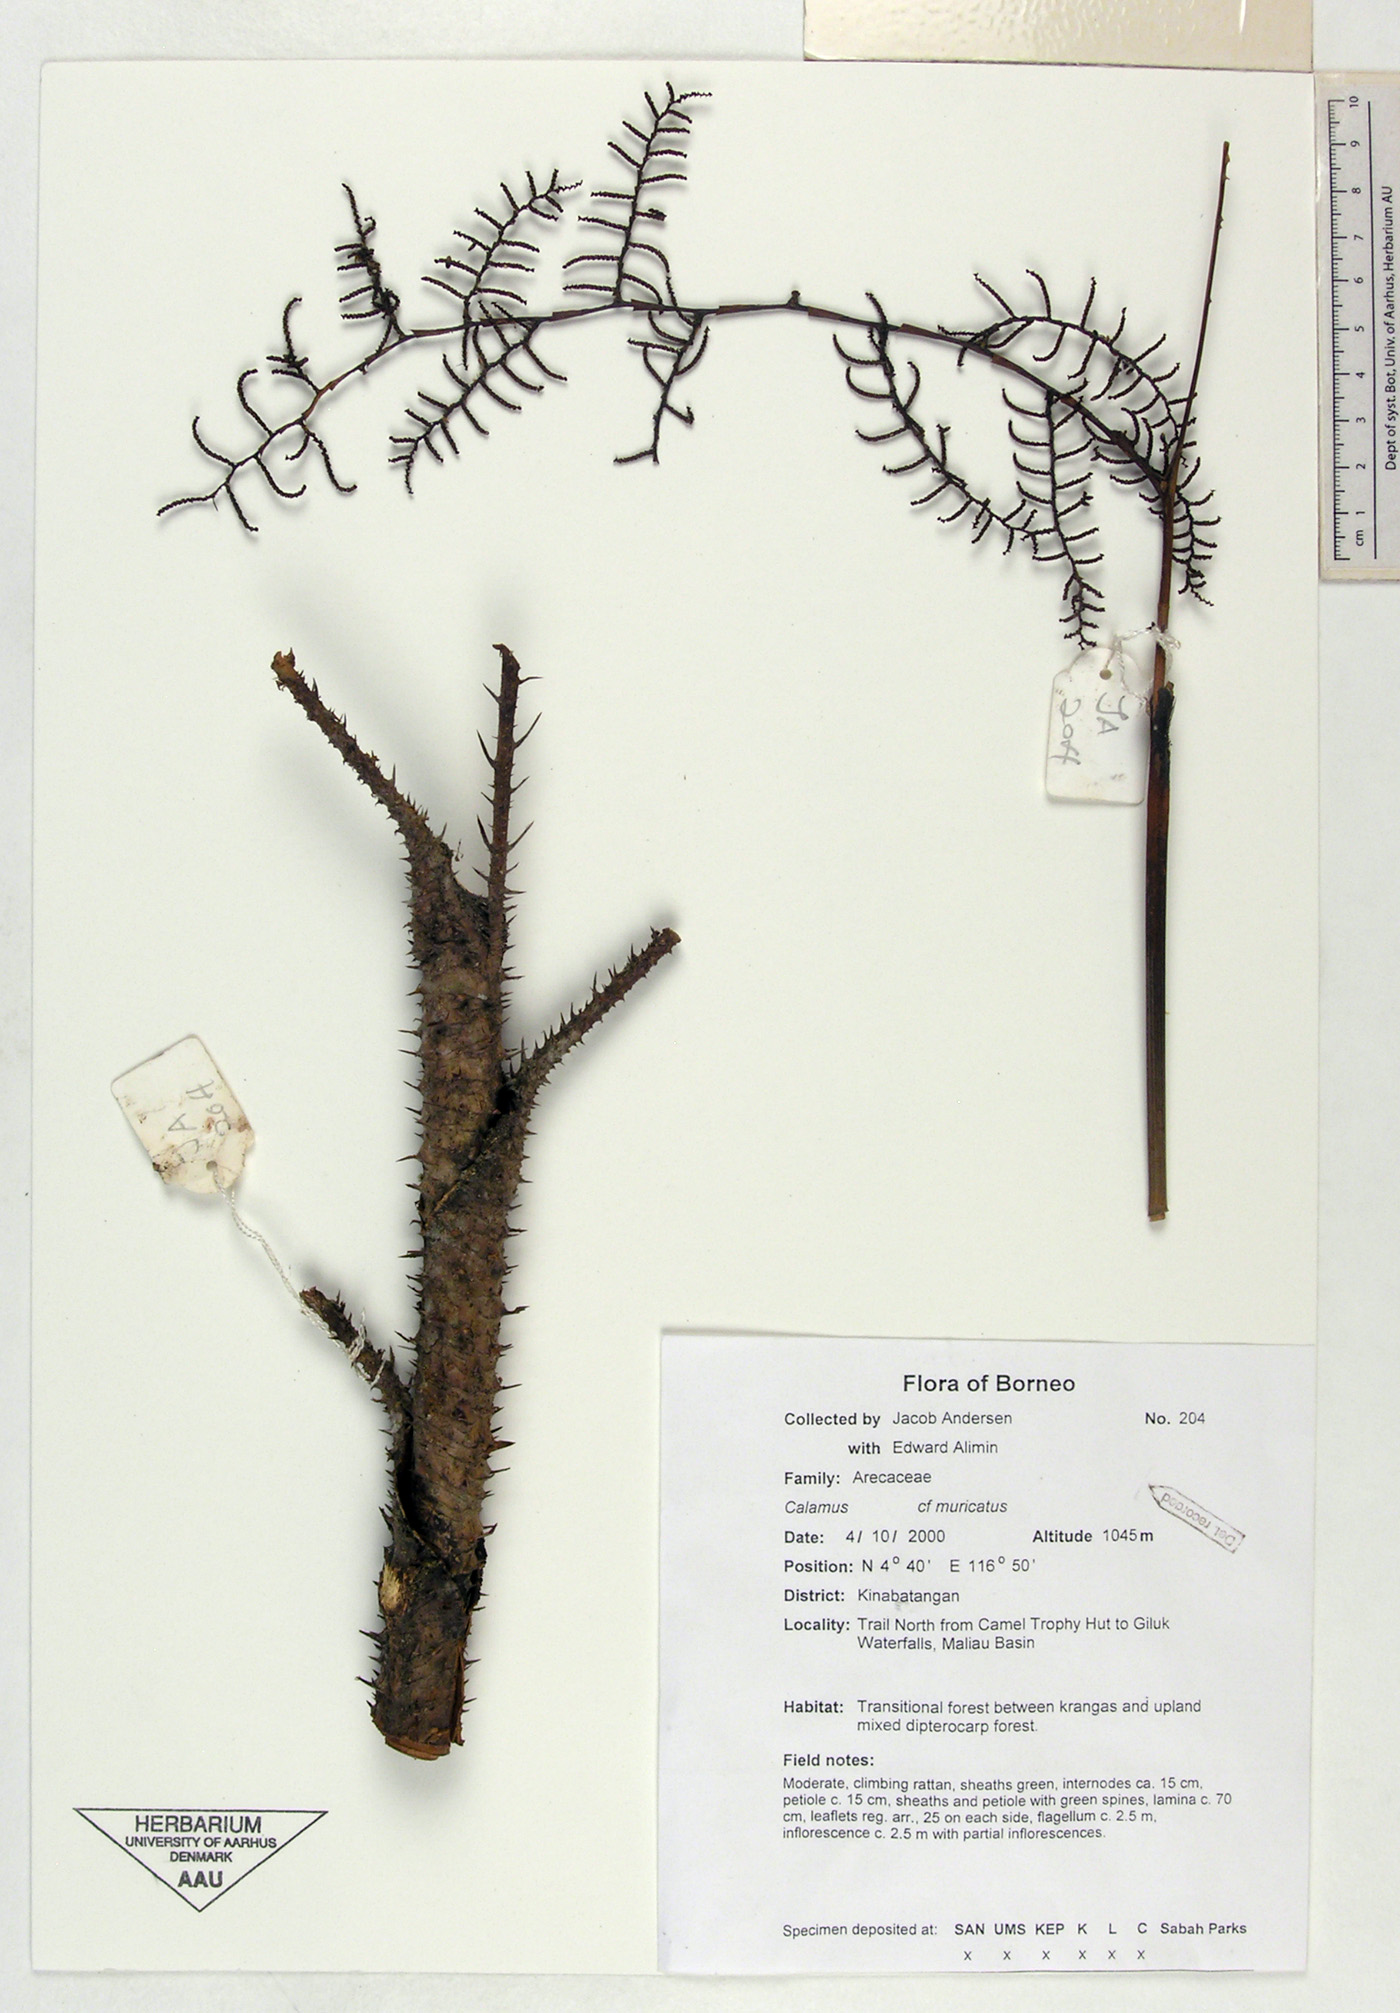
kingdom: Plantae
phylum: Tracheophyta
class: Liliopsida
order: Arecales
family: Arecaceae
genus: Calamus
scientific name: Calamus muricatus
